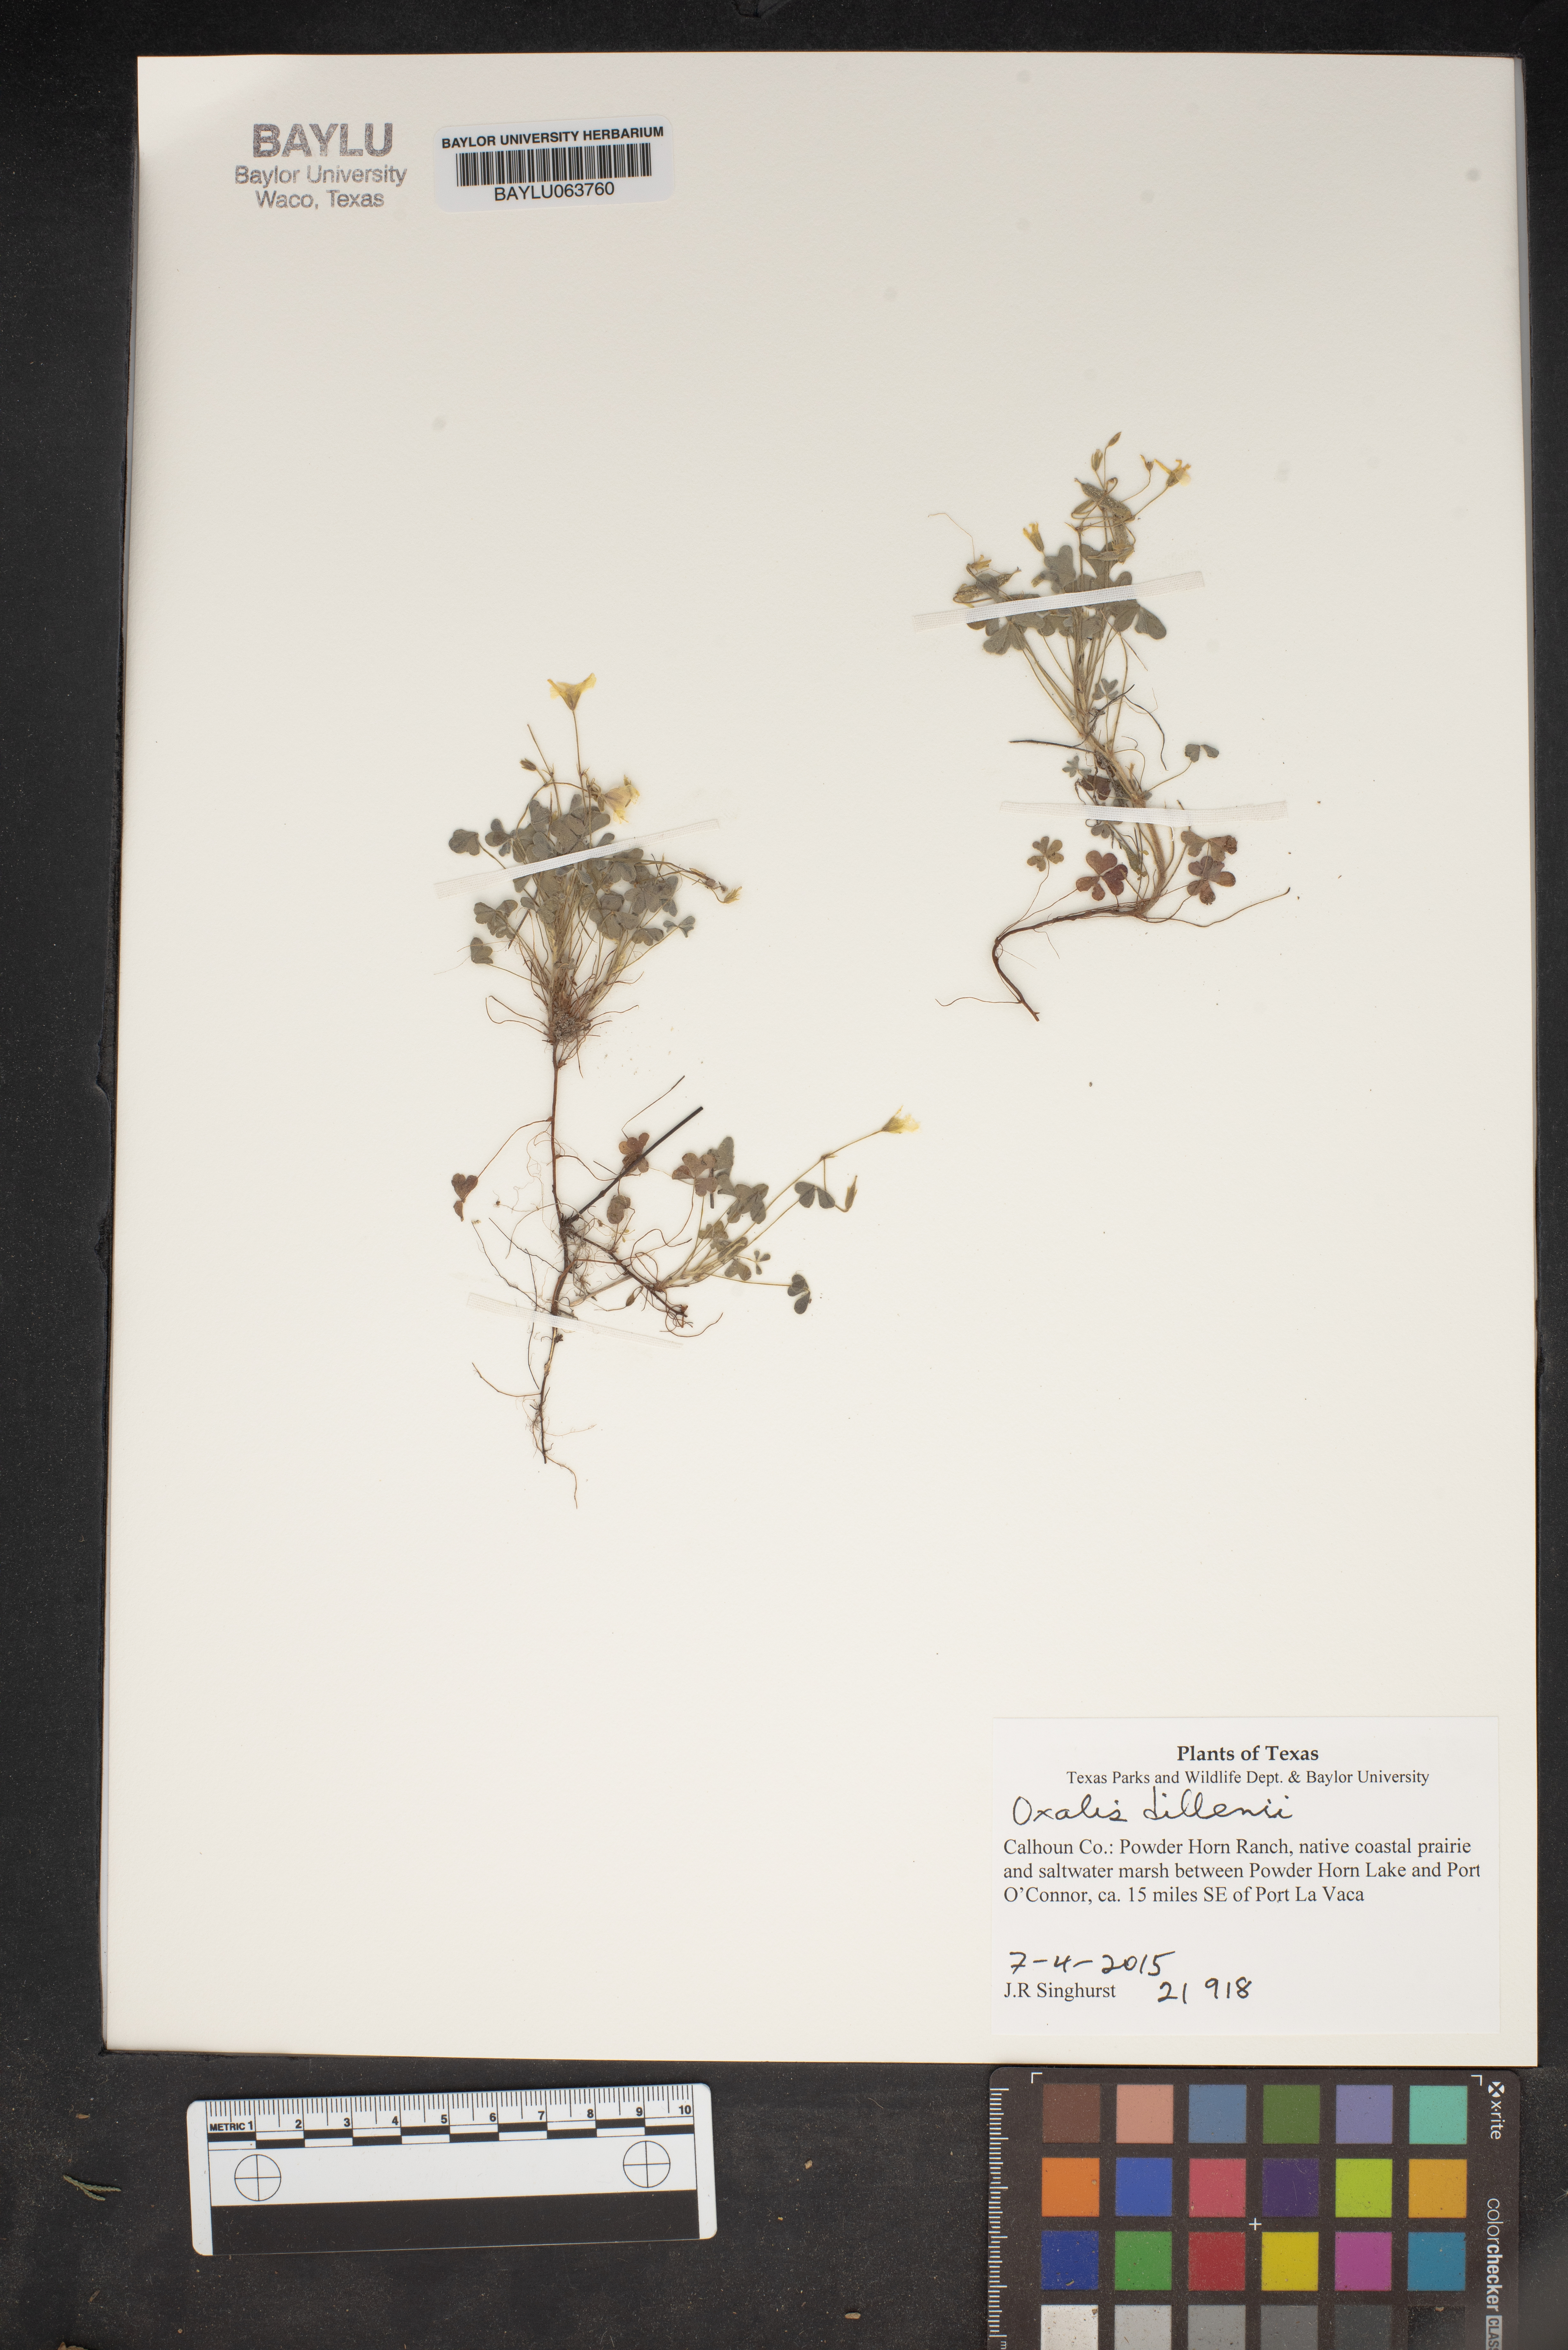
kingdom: Plantae
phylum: Tracheophyta
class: Magnoliopsida
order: Oxalidales
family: Oxalidaceae
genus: Oxalis
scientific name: Oxalis dillenii
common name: Sussex yellow-sorrel
